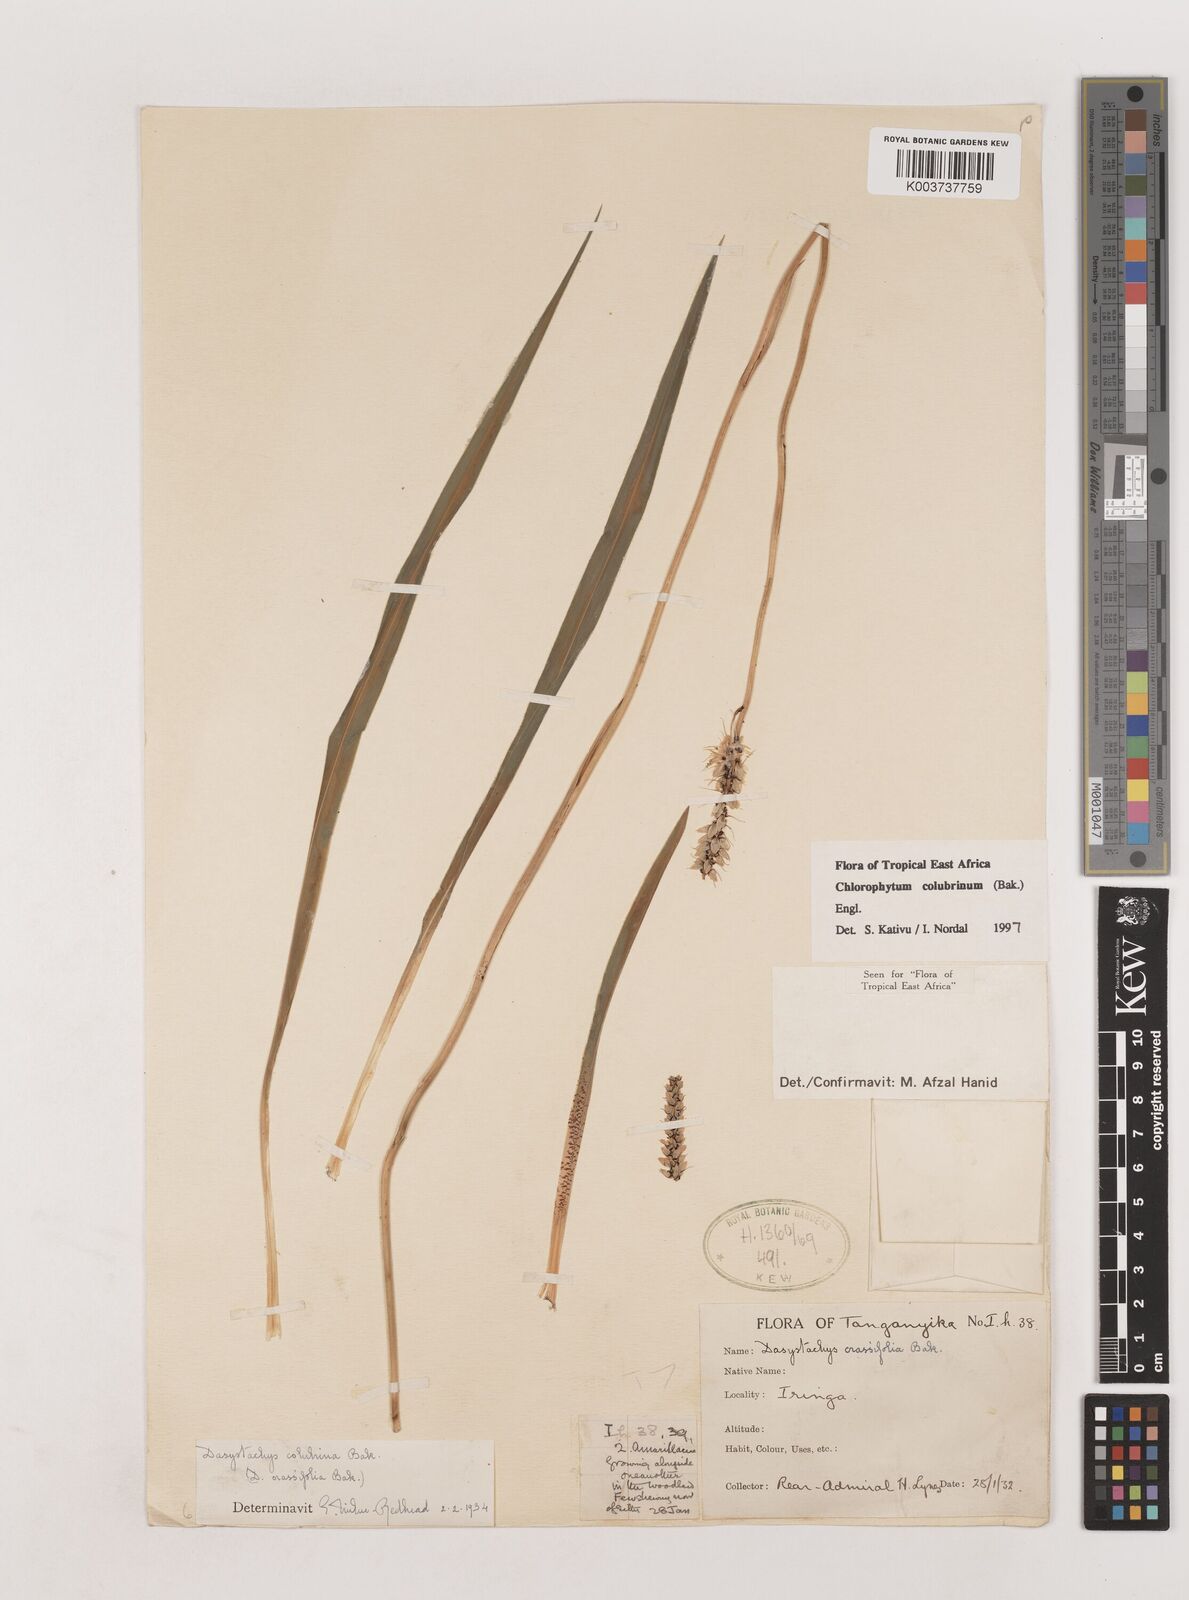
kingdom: Plantae
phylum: Tracheophyta
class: Liliopsida
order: Asparagales
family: Asparagaceae
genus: Chlorophytum
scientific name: Chlorophytum colubrinum
